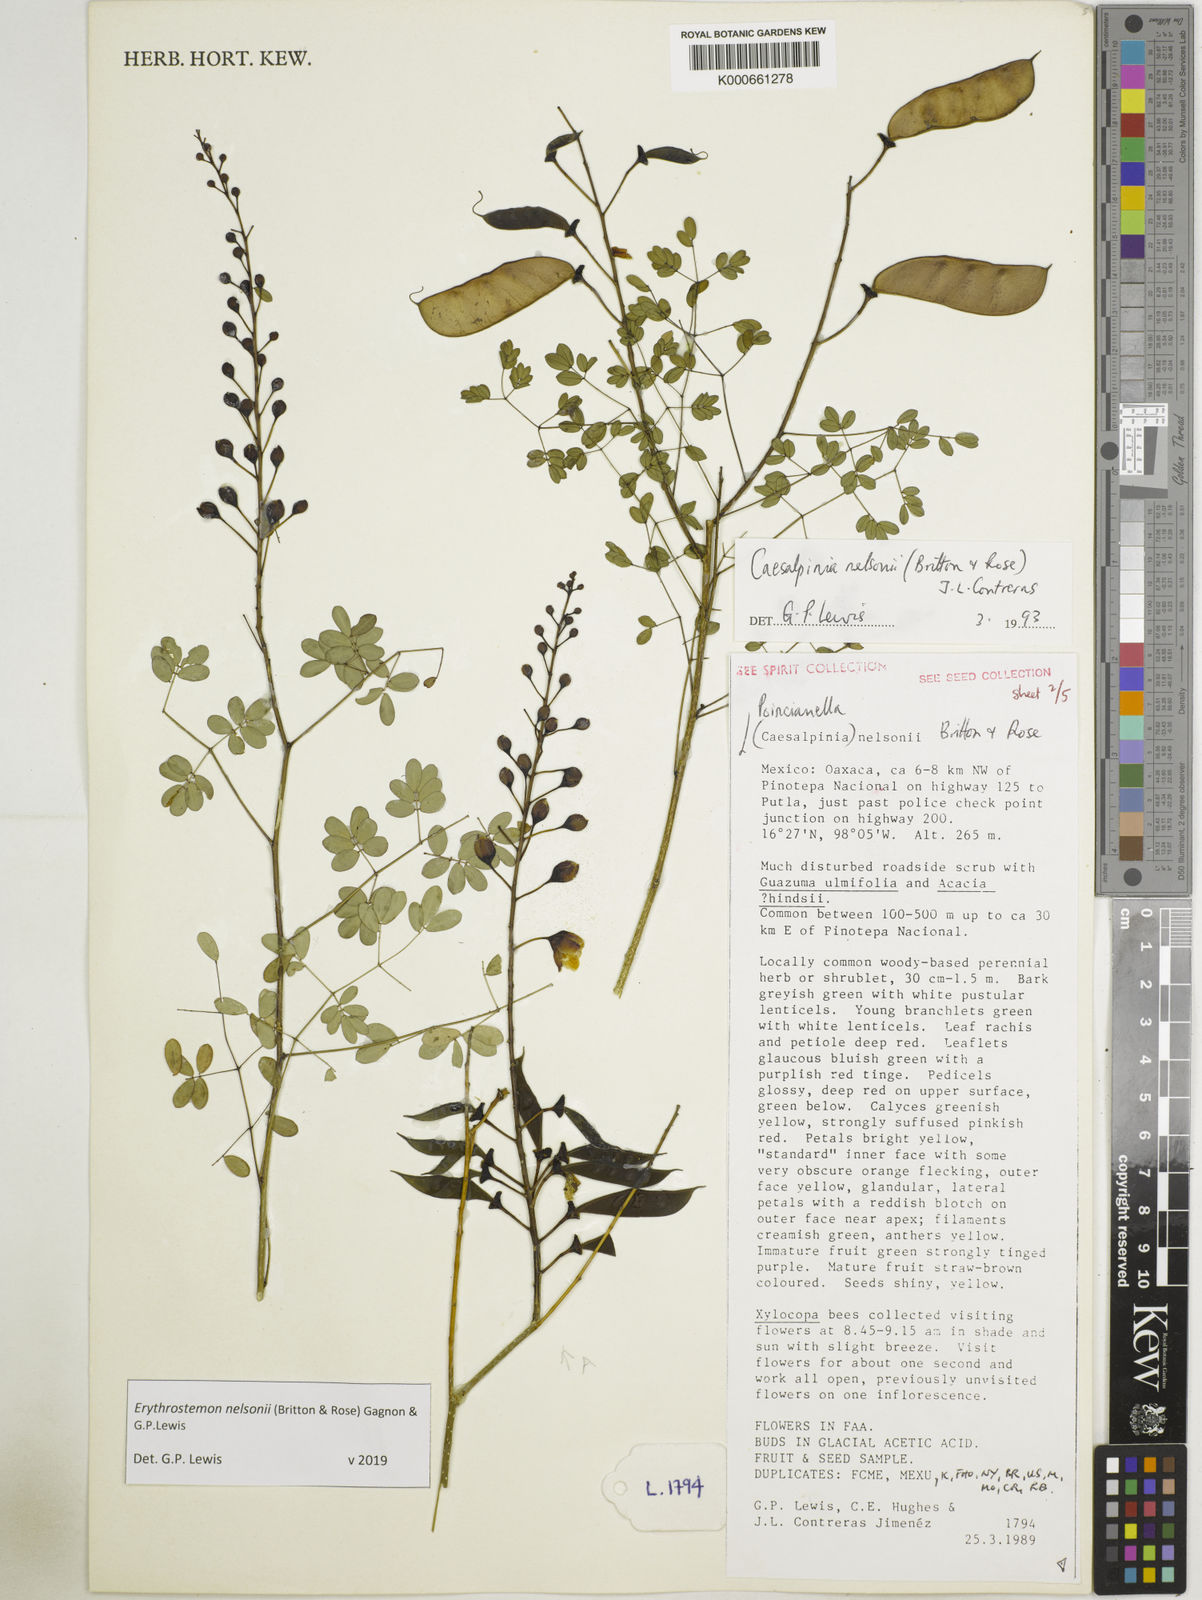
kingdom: Plantae
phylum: Tracheophyta
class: Magnoliopsida
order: Fabales
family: Fabaceae
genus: Erythrostemon
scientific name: Erythrostemon nelsonii
